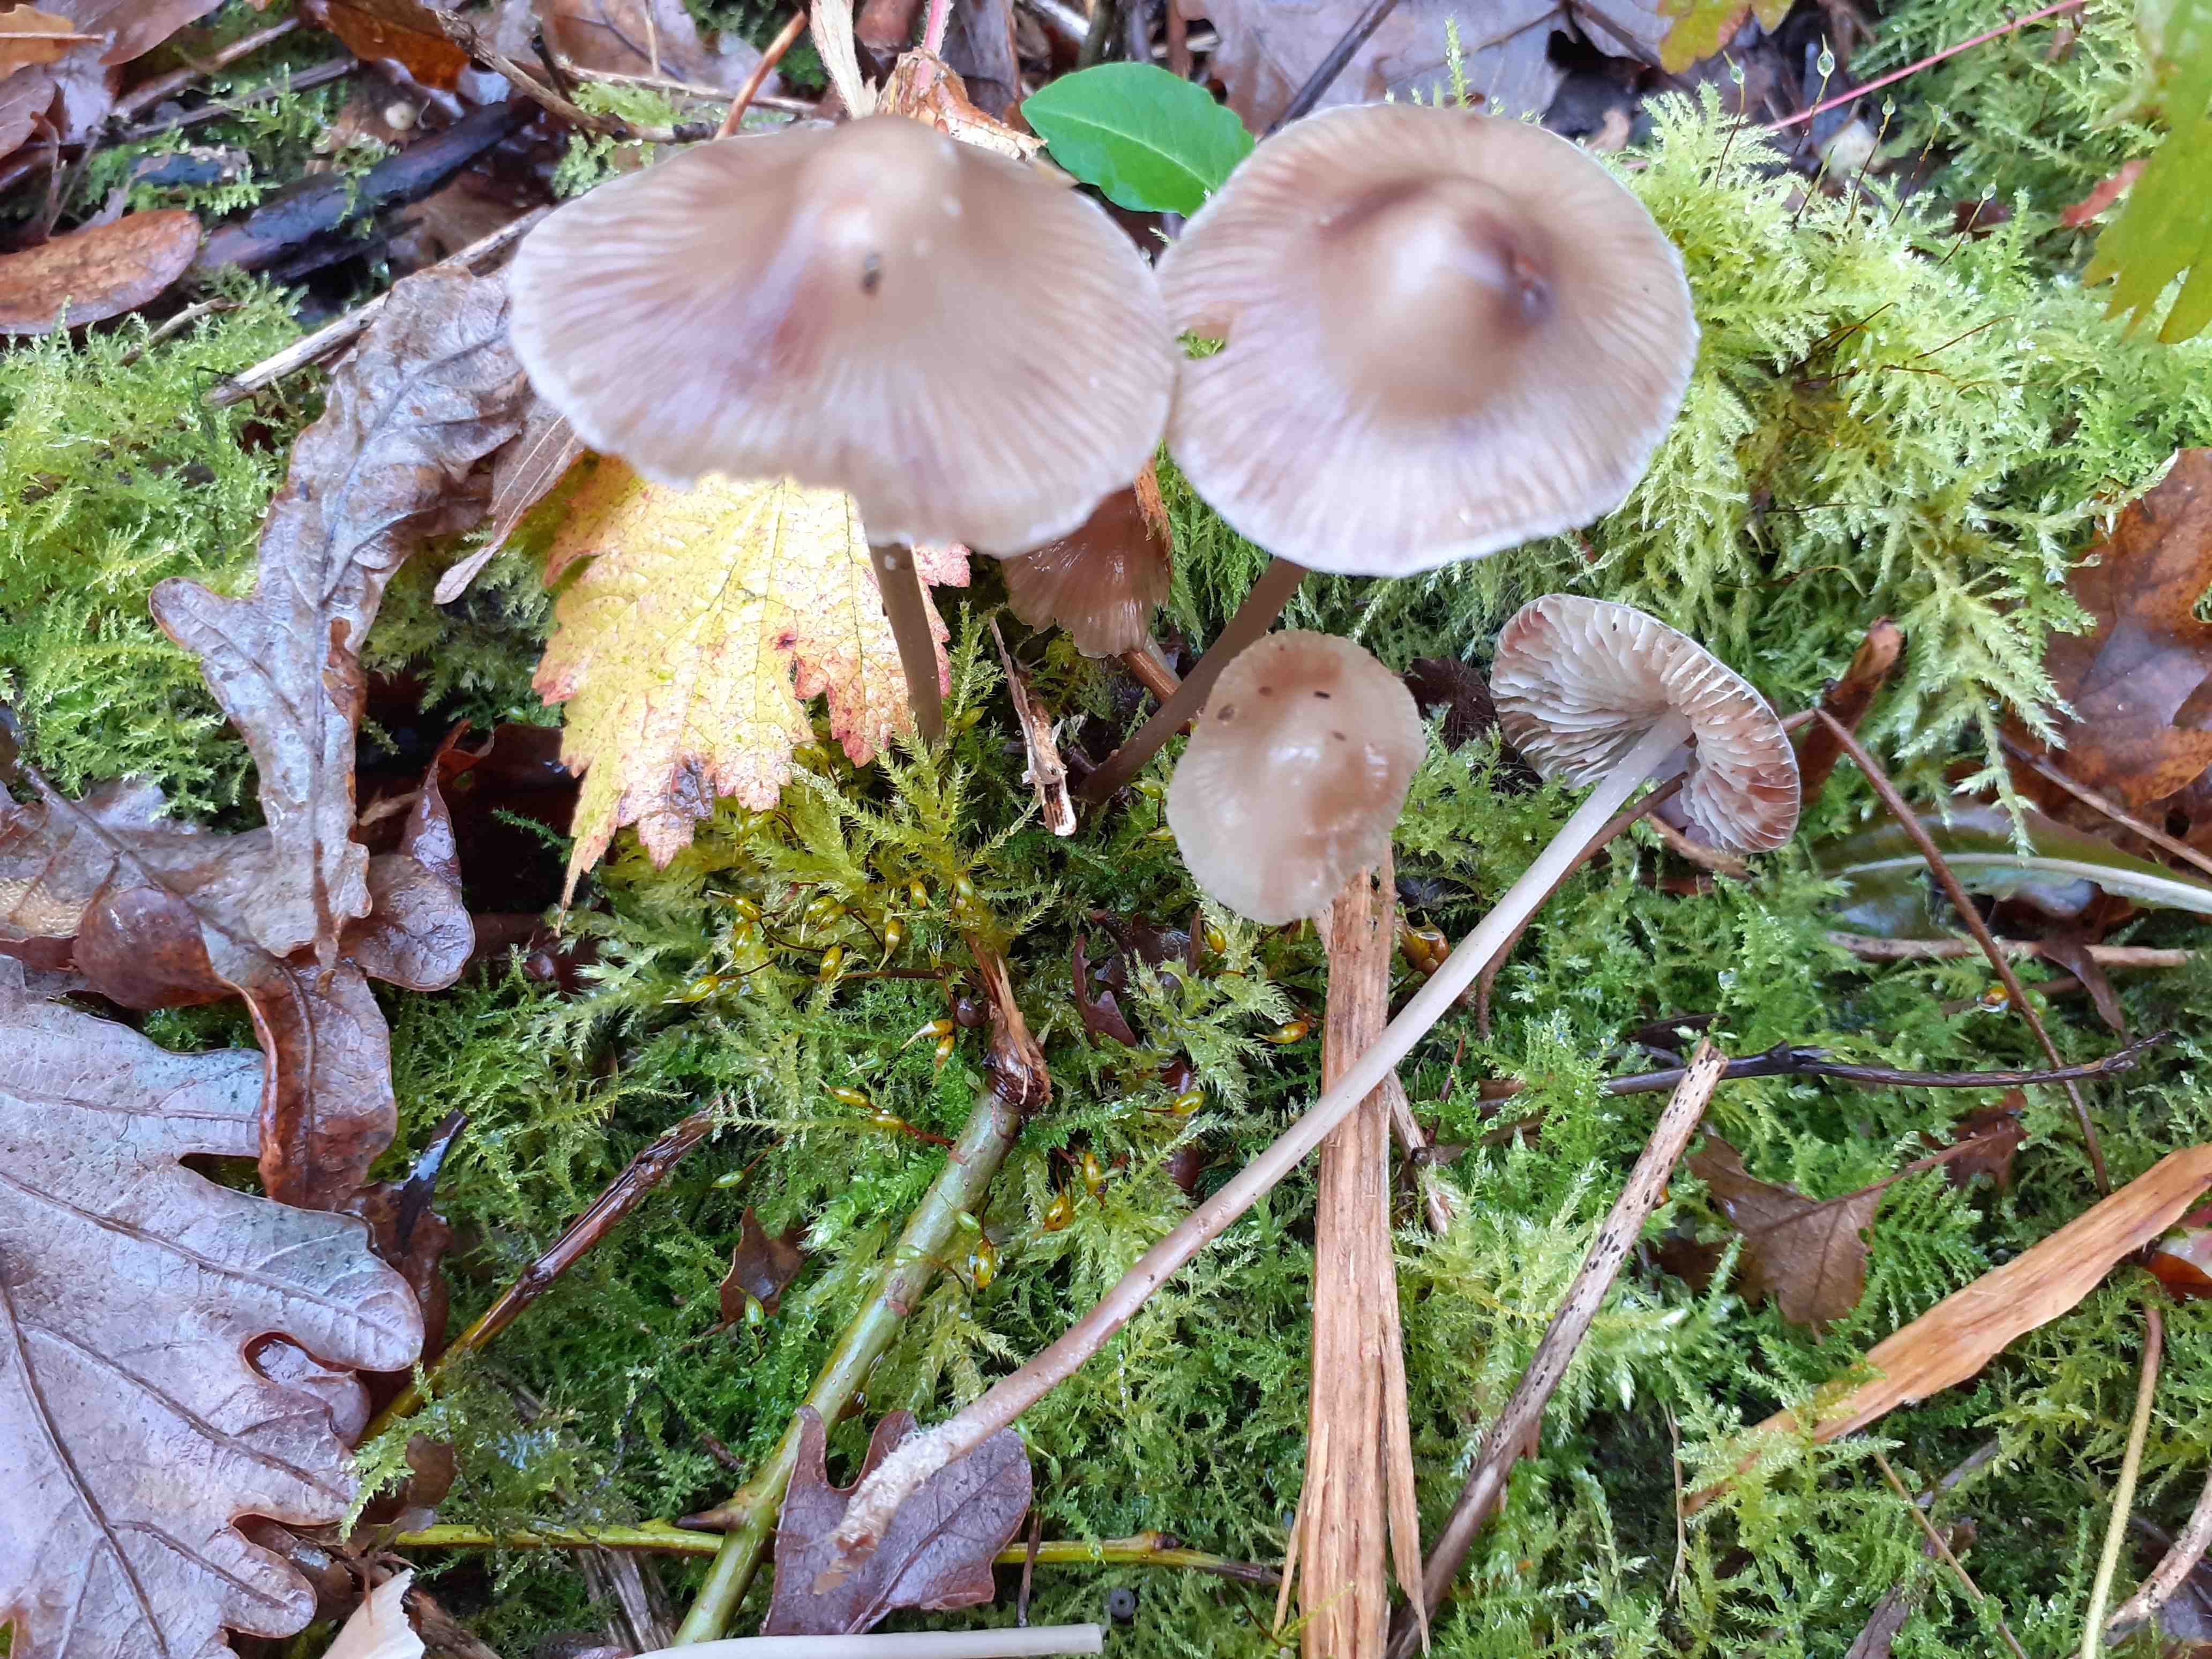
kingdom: Fungi
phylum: Basidiomycota
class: Agaricomycetes
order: Agaricales
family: Mycenaceae
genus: Mycena
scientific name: Mycena polygramma
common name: mangestribet huesvamp
